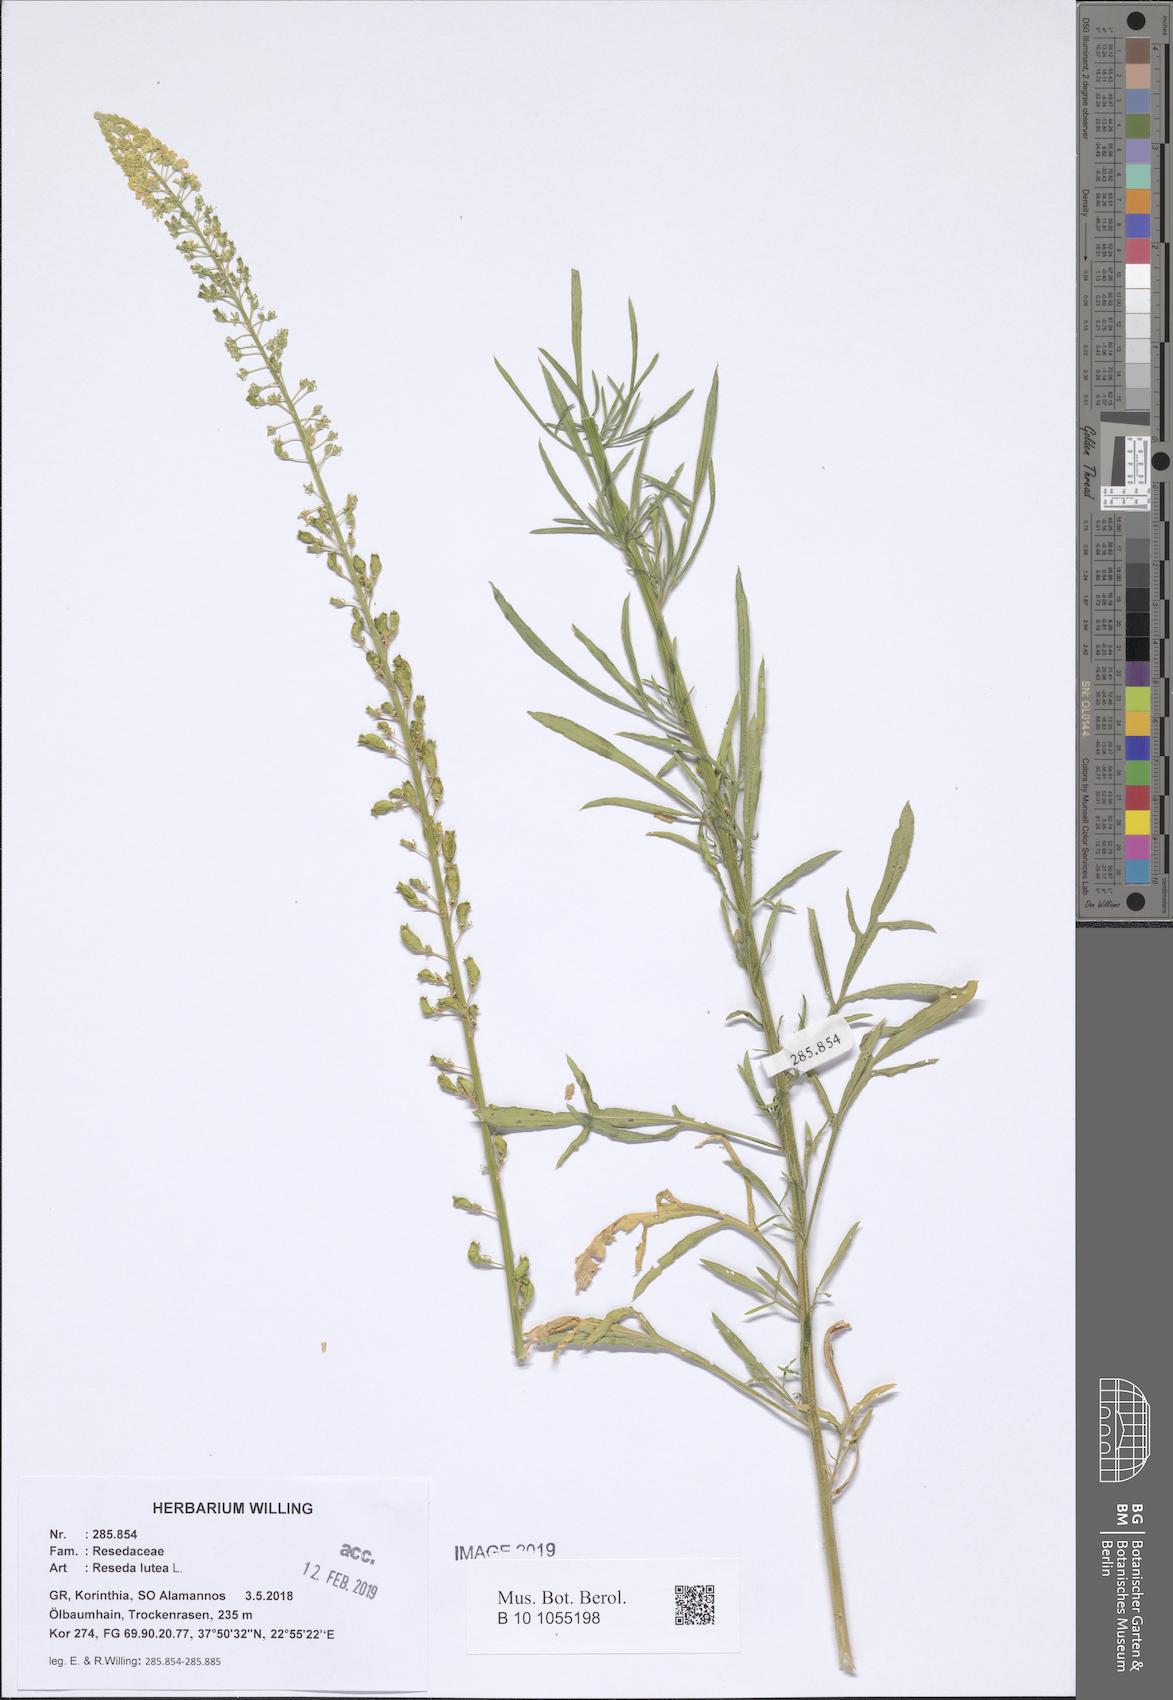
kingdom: Plantae
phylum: Tracheophyta
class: Magnoliopsida
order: Brassicales
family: Resedaceae
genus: Reseda
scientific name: Reseda lutea
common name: Wild mignonette
